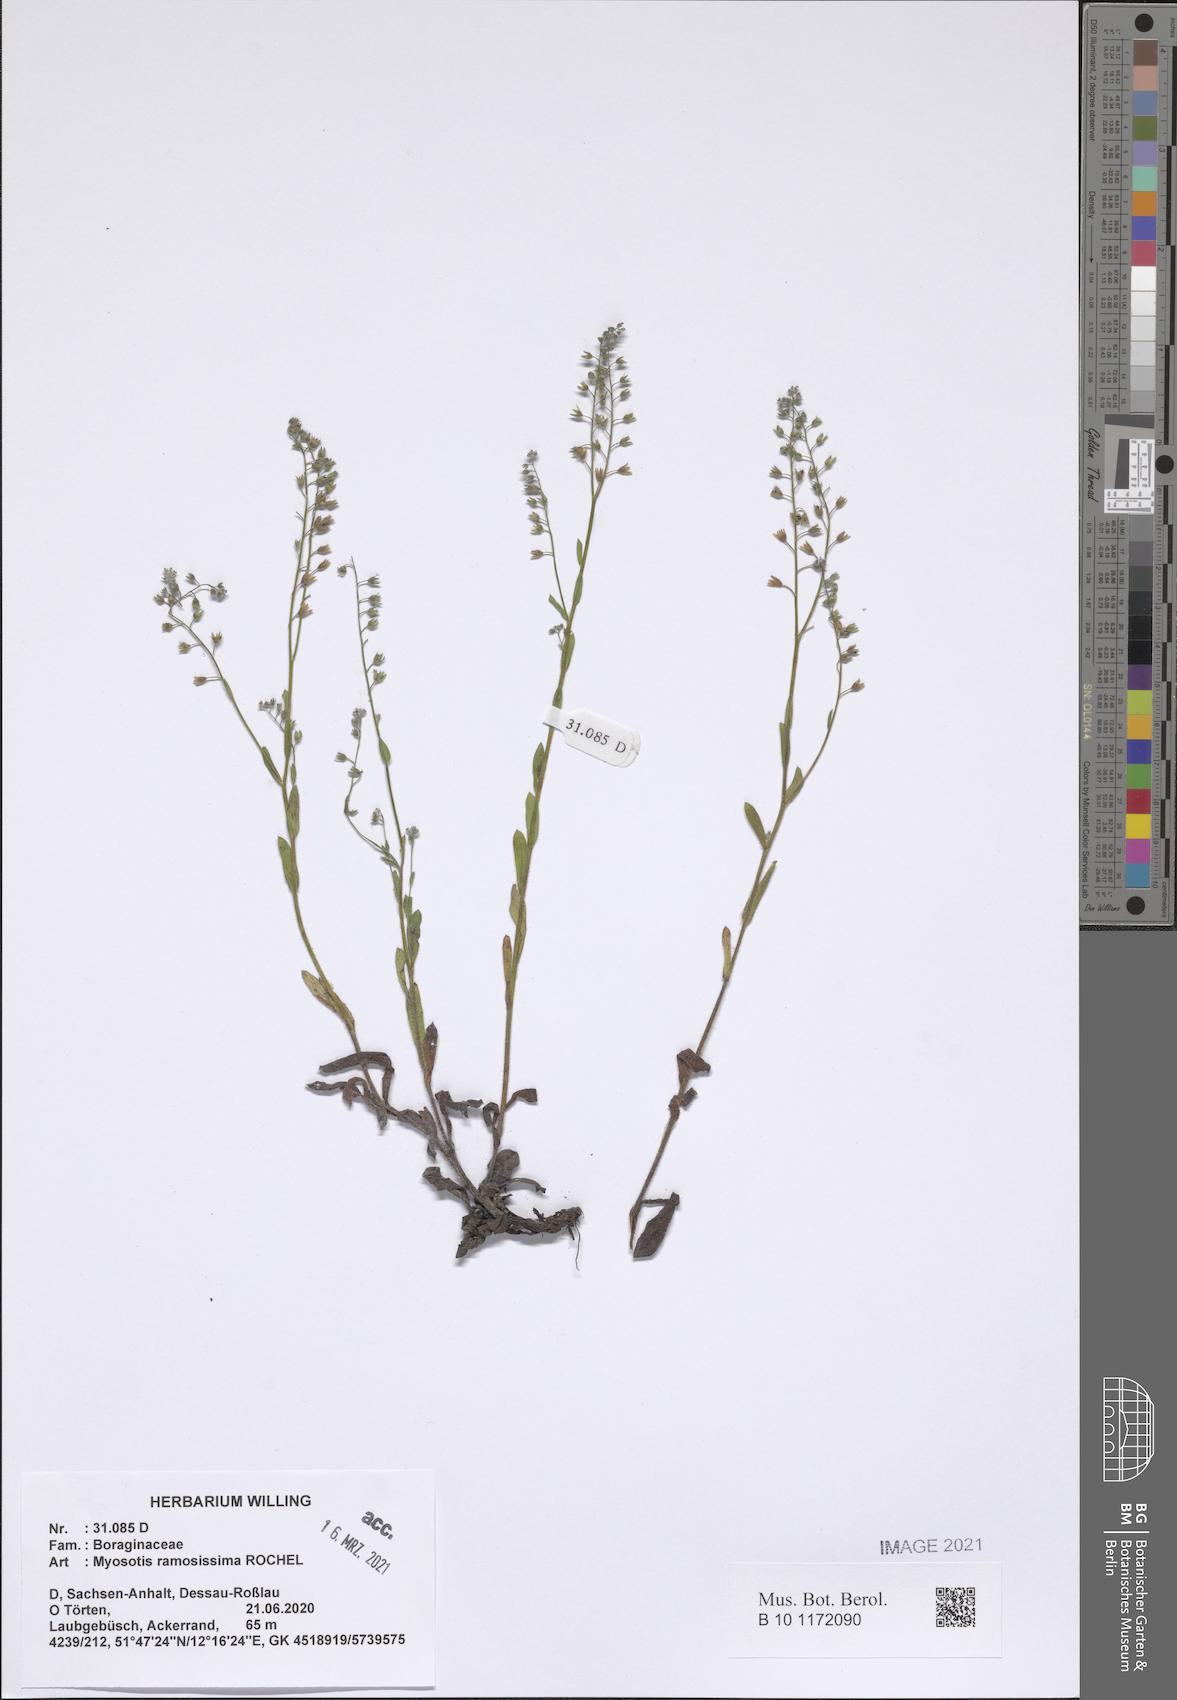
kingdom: Plantae
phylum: Tracheophyta
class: Magnoliopsida
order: Boraginales
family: Boraginaceae
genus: Myosotis
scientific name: Myosotis ramosissima
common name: Early forget-me-not
